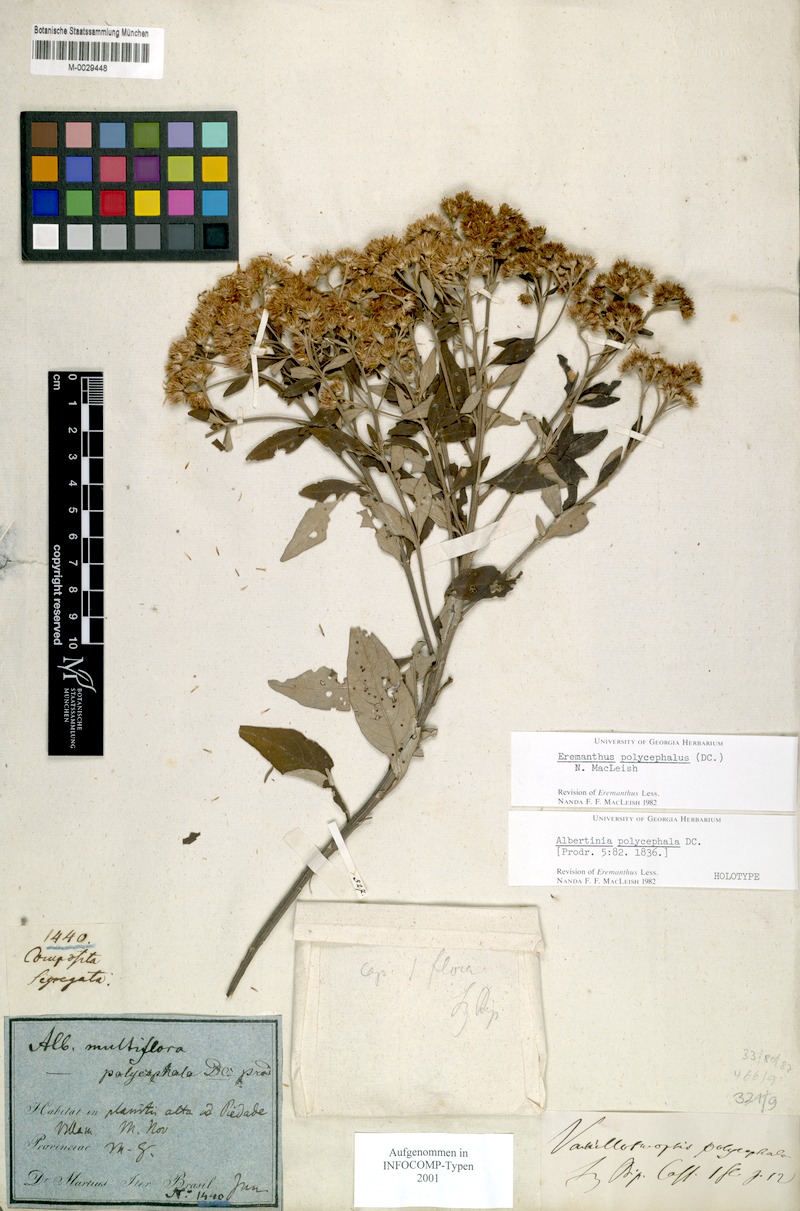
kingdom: Plantae
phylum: Tracheophyta
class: Magnoliopsida
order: Asterales
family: Asteraceae
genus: Eremanthus
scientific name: Eremanthus polycephalus
